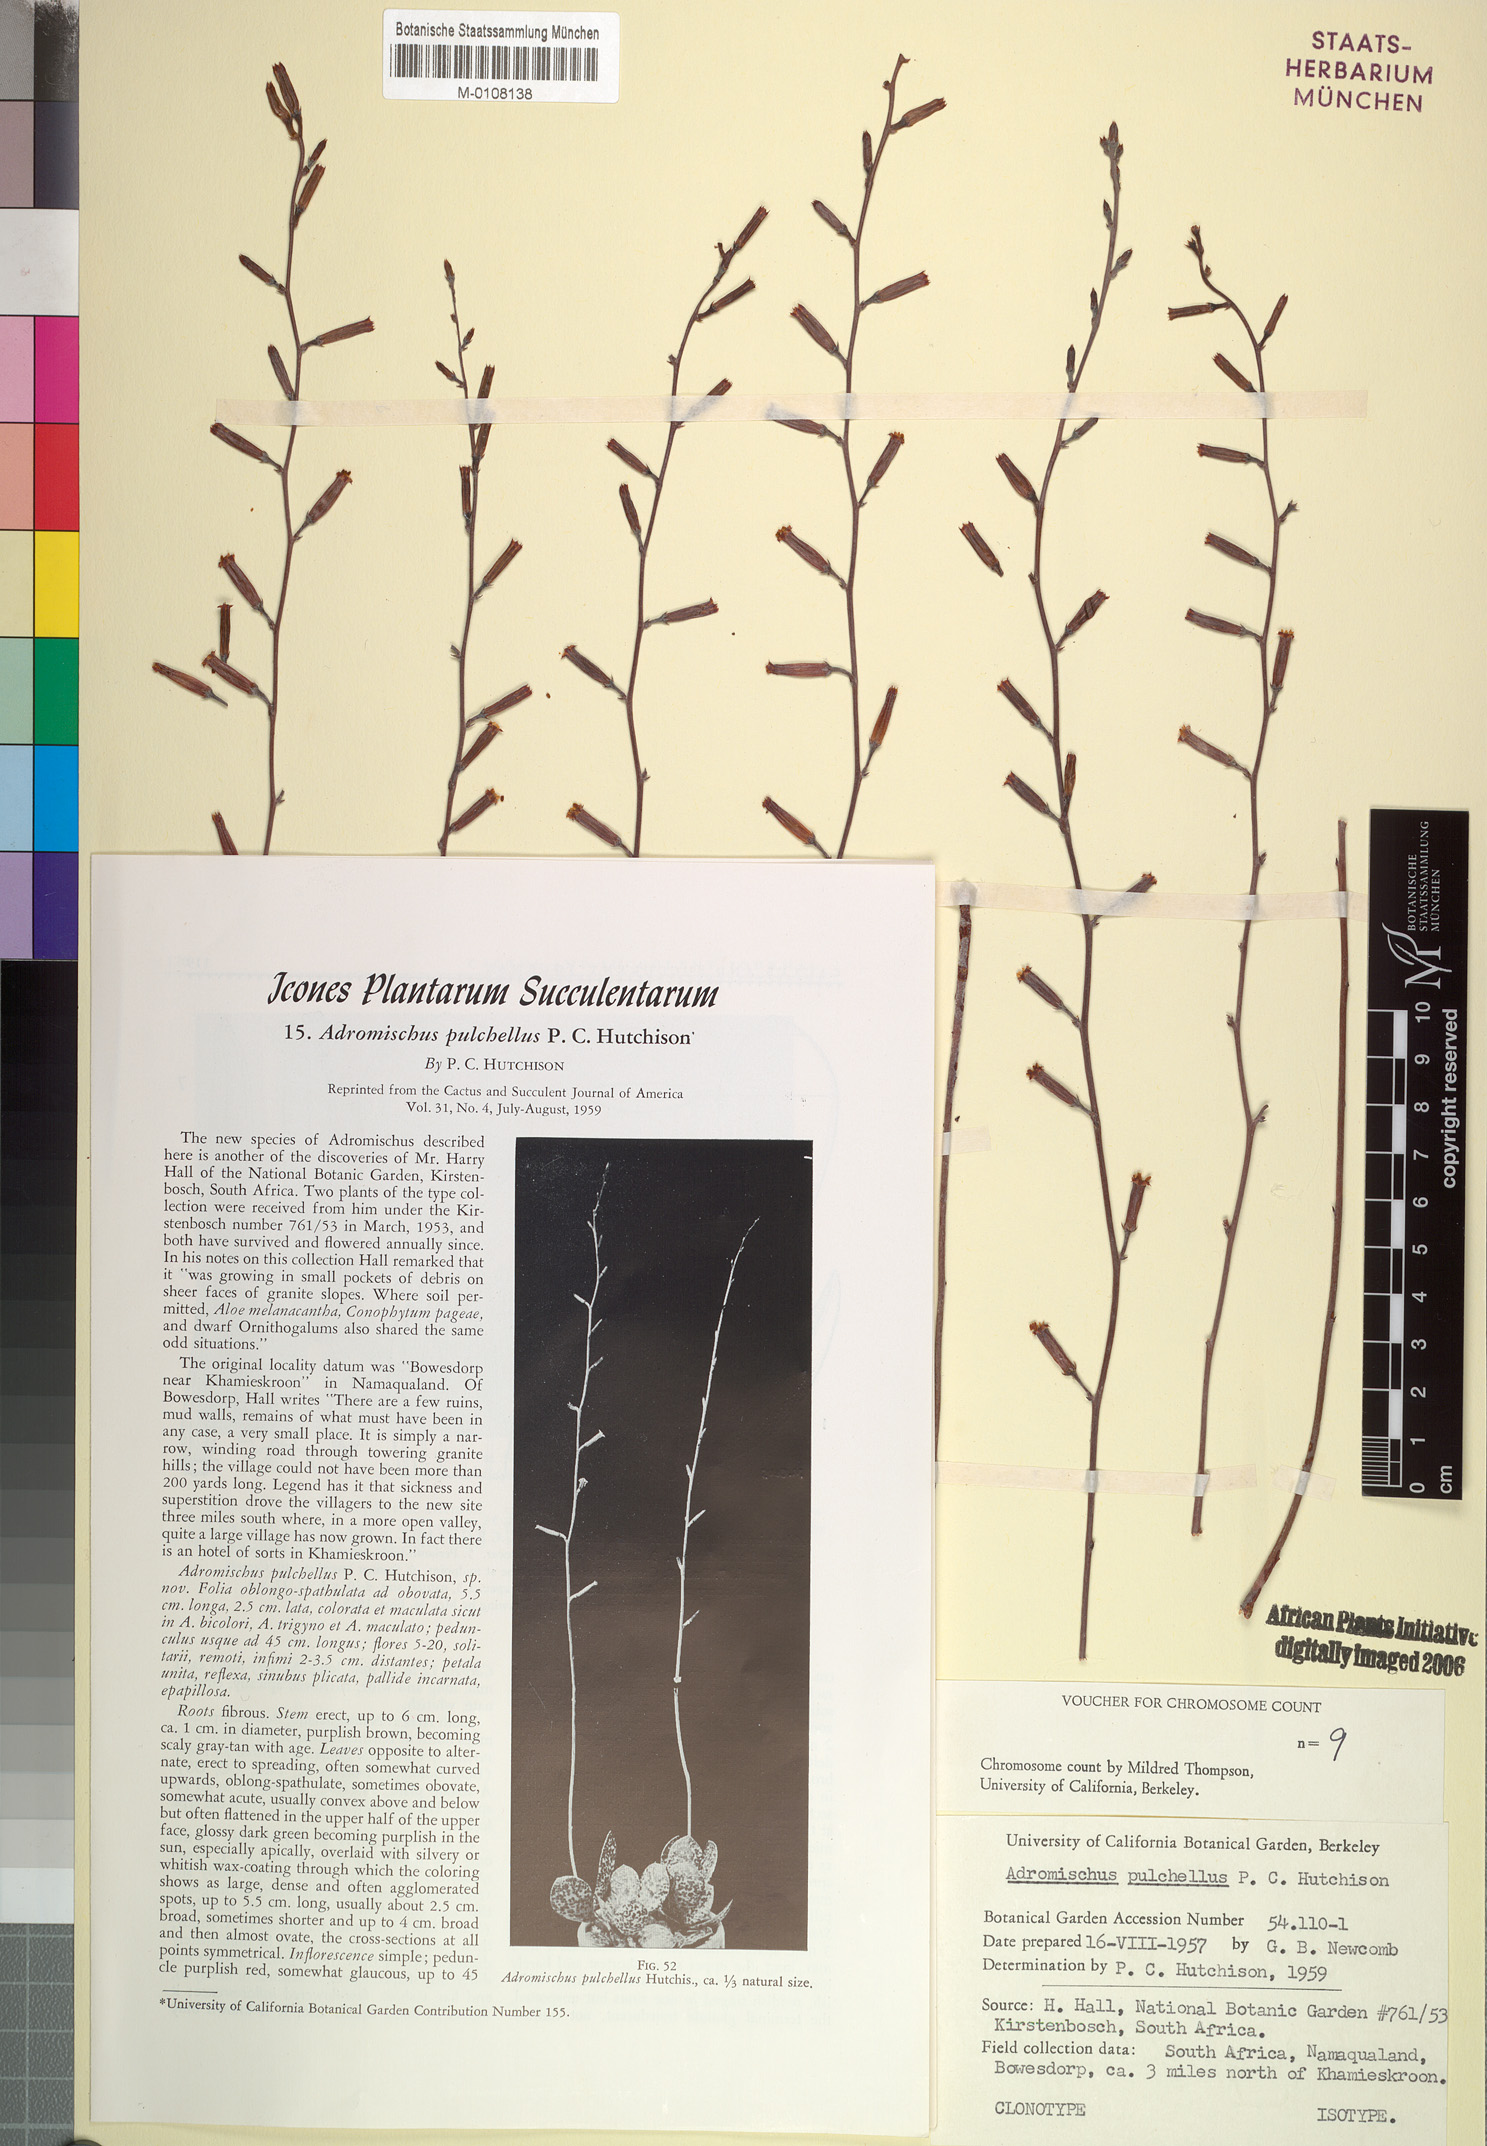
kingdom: Plantae
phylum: Tracheophyta
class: Magnoliopsida
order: Saxifragales
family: Crassulaceae
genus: Adromischus
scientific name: Adromischus alstonii
